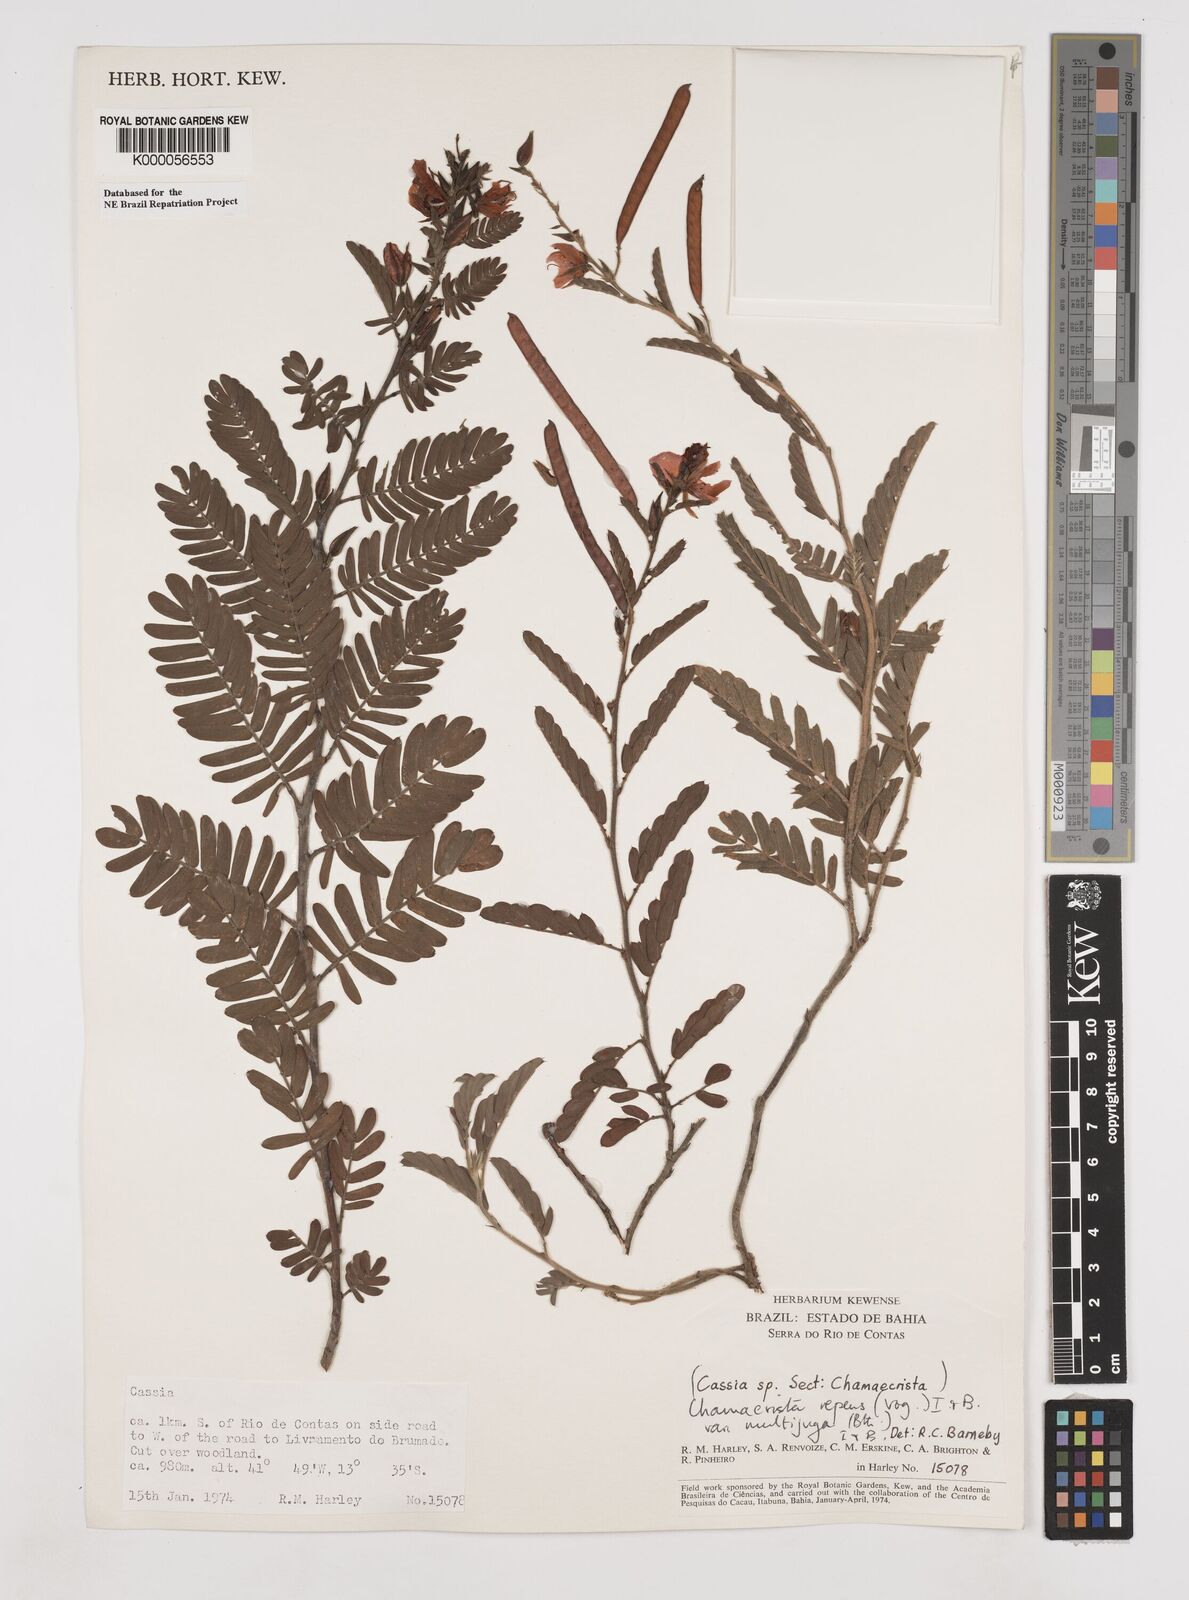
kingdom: Plantae
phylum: Tracheophyta
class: Magnoliopsida
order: Fabales
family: Fabaceae
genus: Chamaecrista
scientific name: Chamaecrista repens
